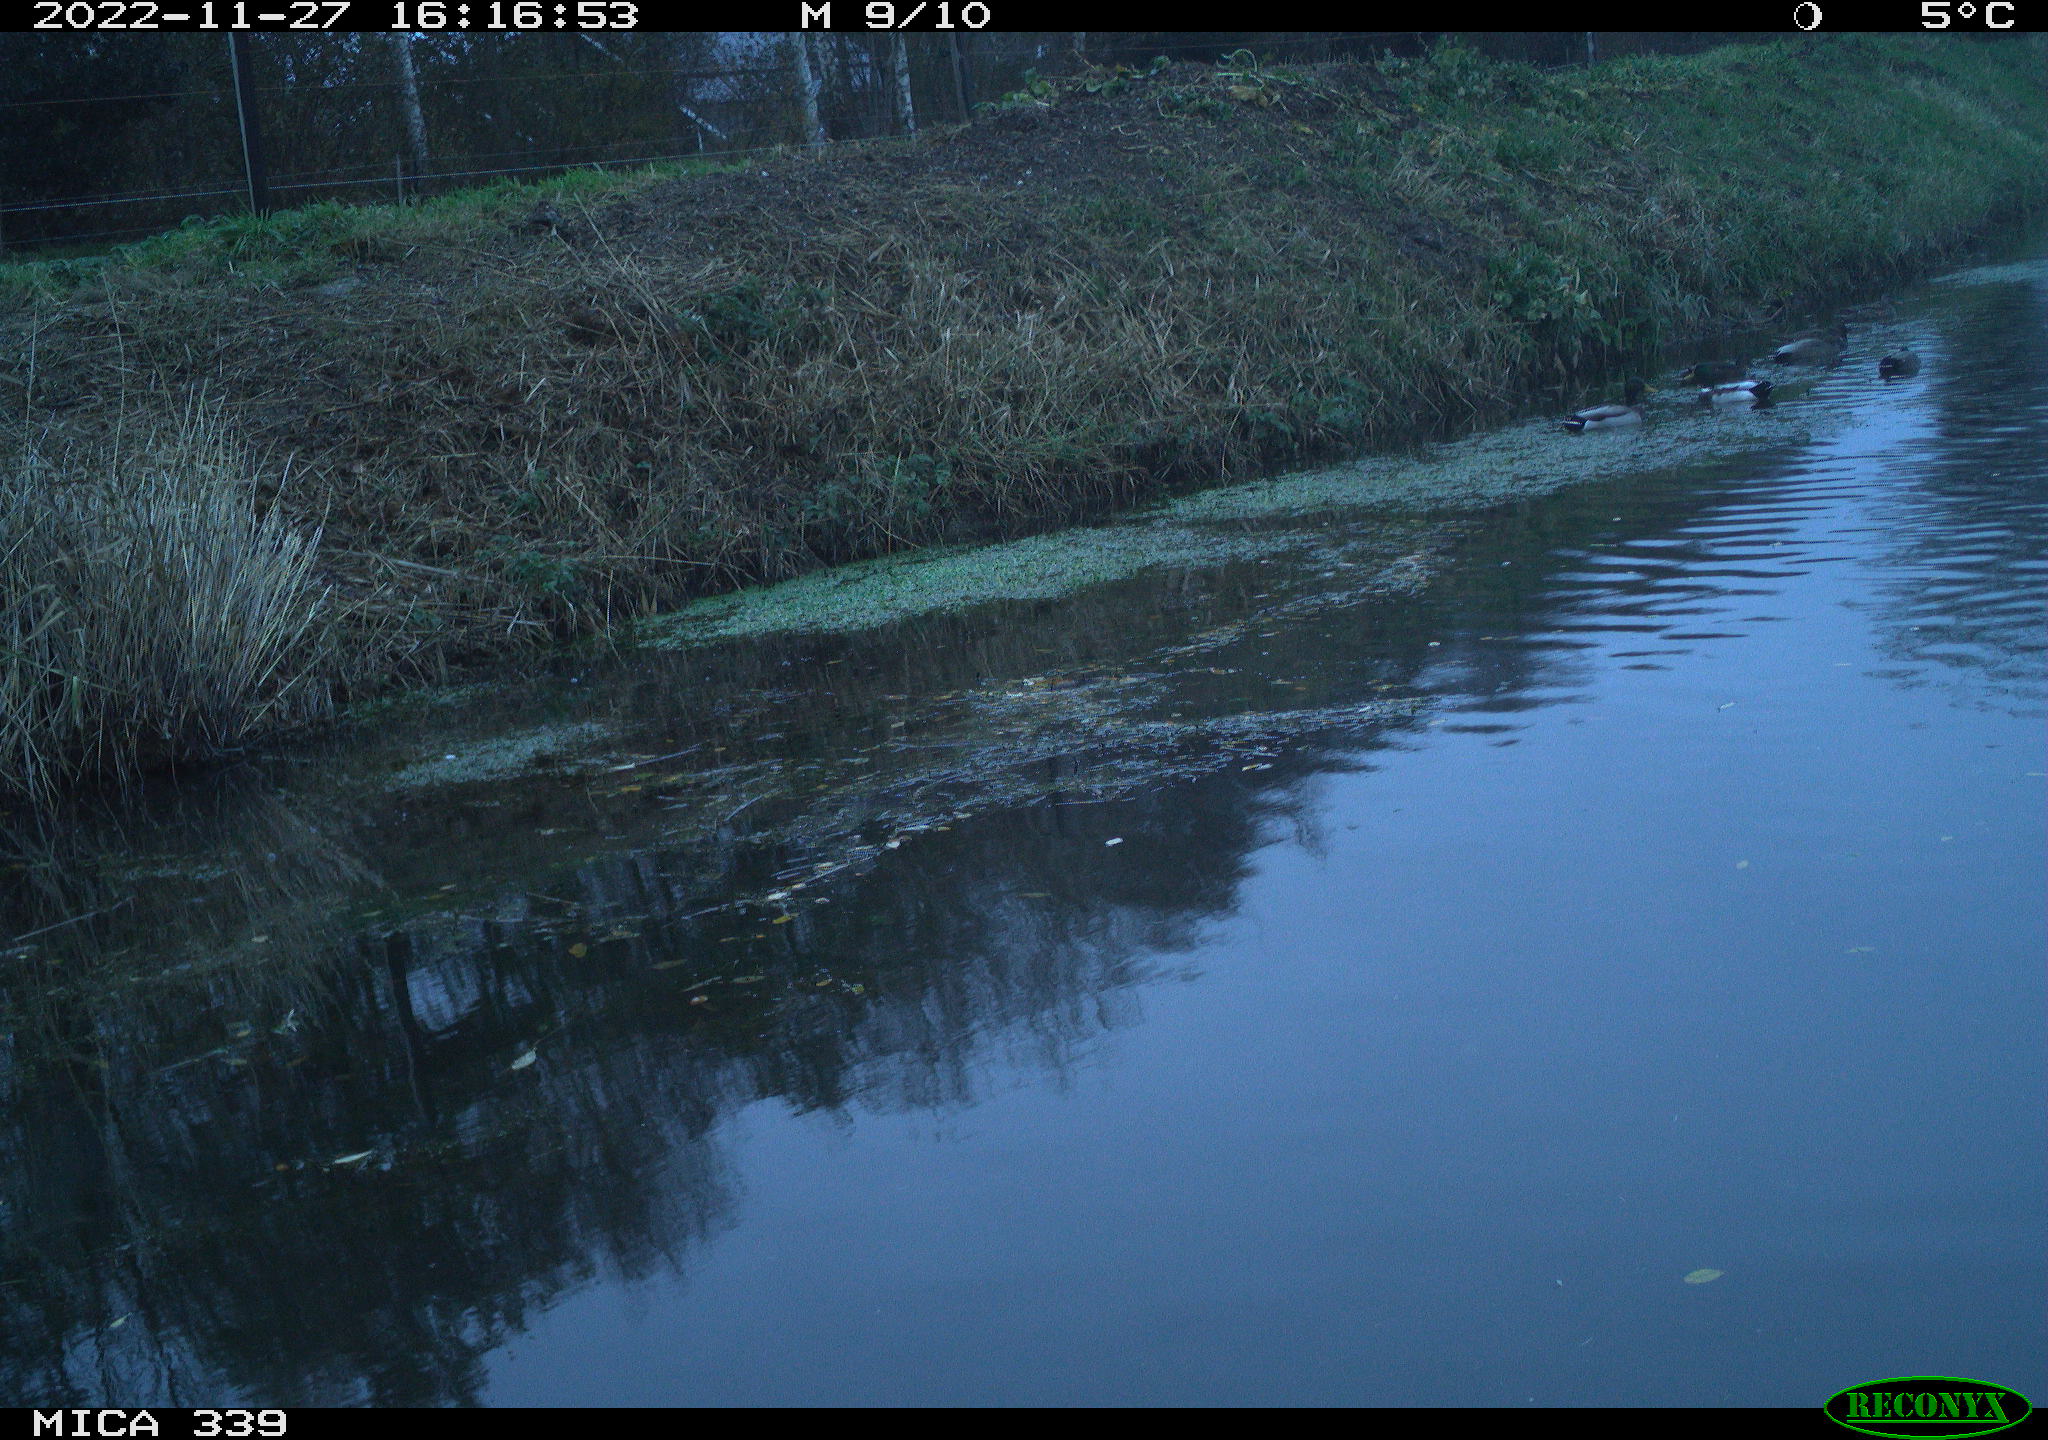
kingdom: Animalia
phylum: Chordata
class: Aves
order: Pelecaniformes
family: Ardeidae
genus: Ardea
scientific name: Ardea alba
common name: Great egret
